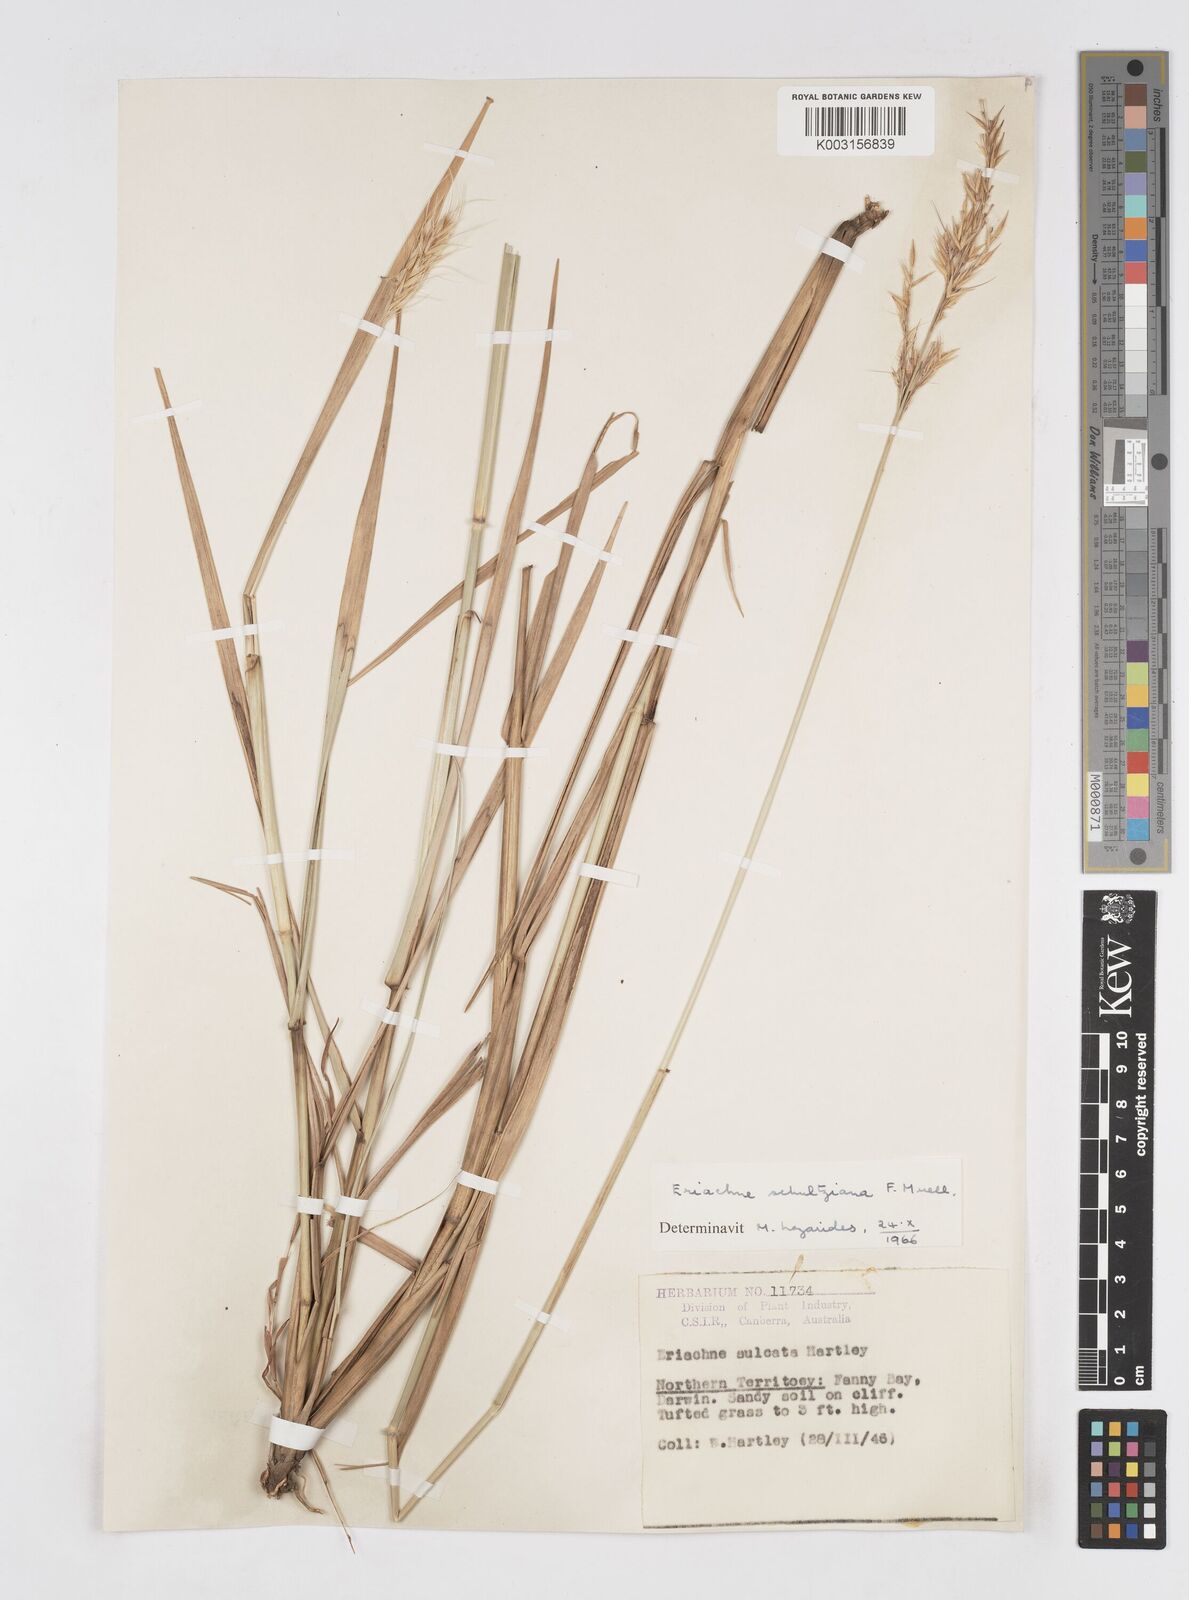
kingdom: Plantae
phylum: Tracheophyta
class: Liliopsida
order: Poales
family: Poaceae
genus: Eriachne
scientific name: Eriachne schultziana
